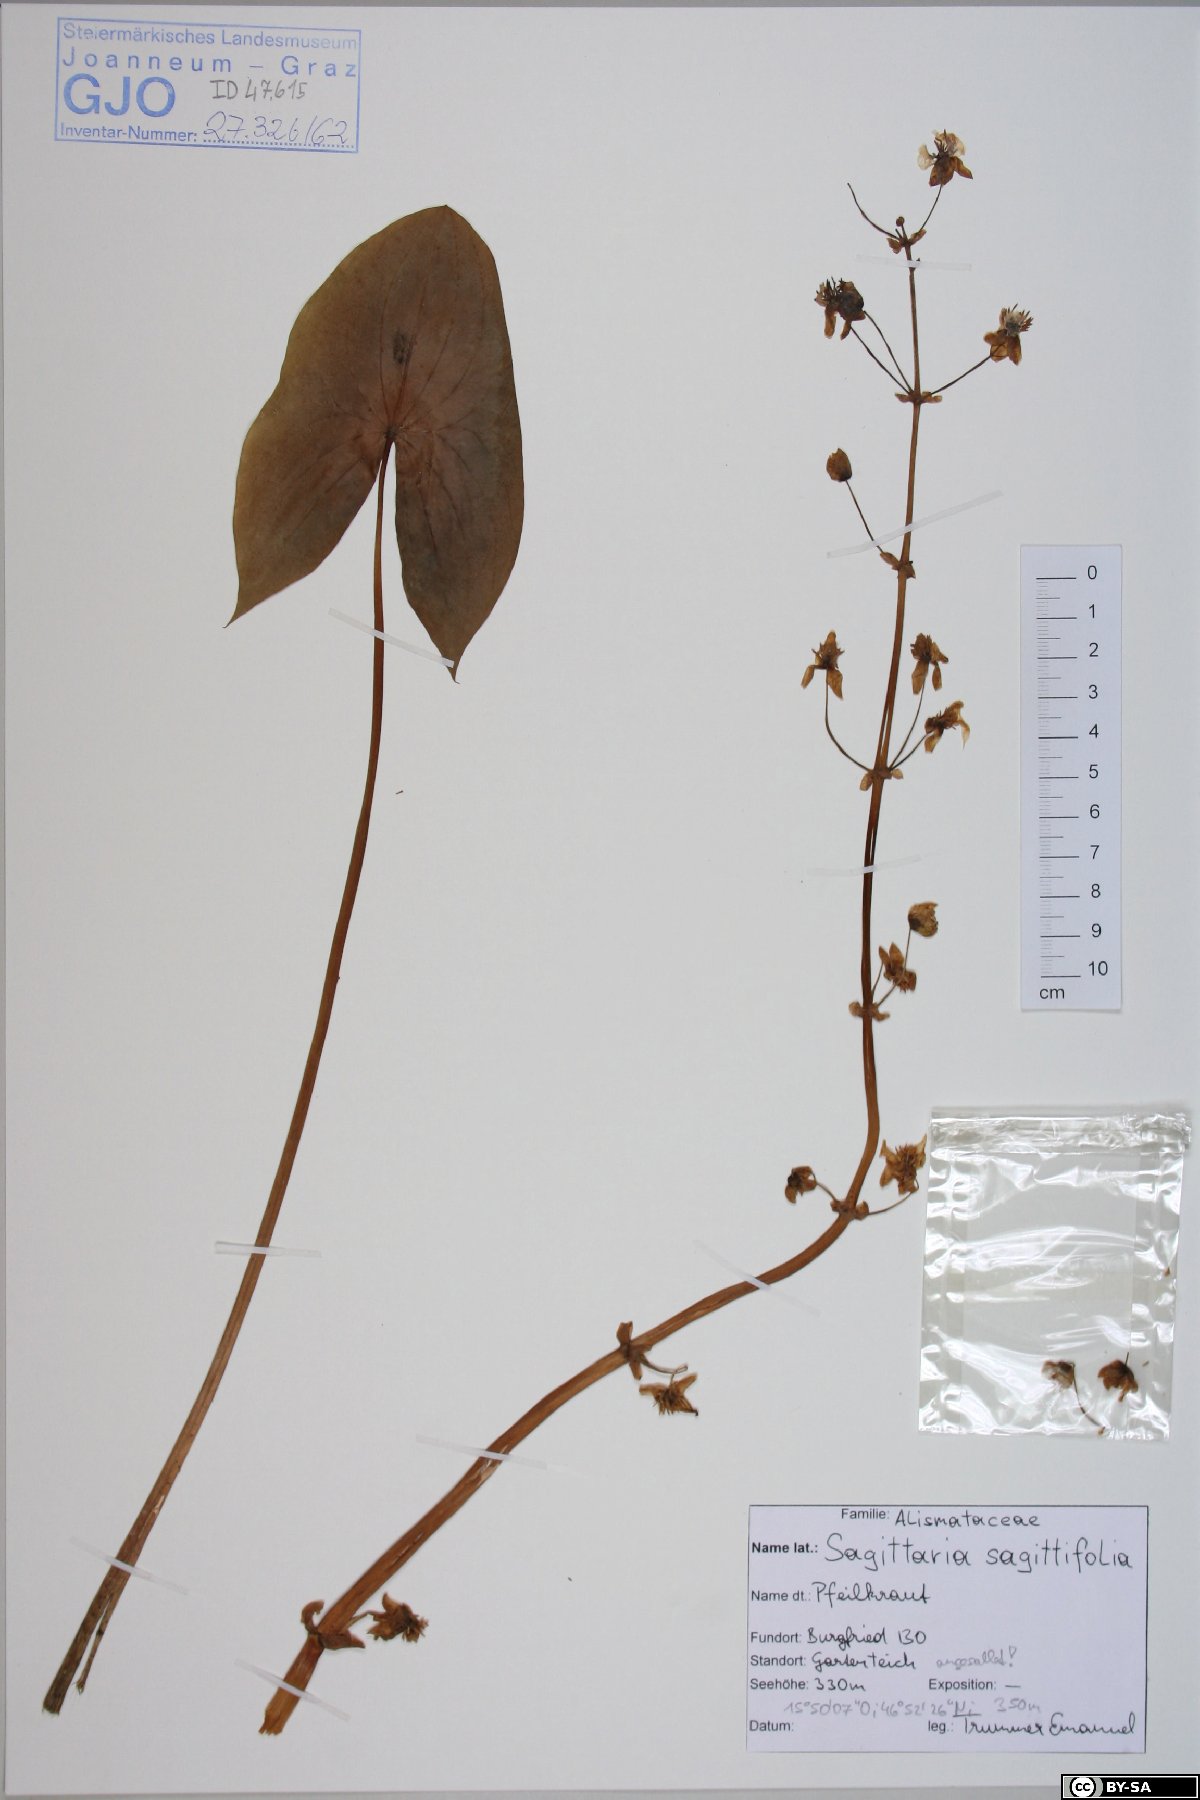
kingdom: Plantae
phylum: Tracheophyta
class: Liliopsida
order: Alismatales
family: Alismataceae
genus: Sagittaria
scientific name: Sagittaria sagittifolia
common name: Arrowhead
